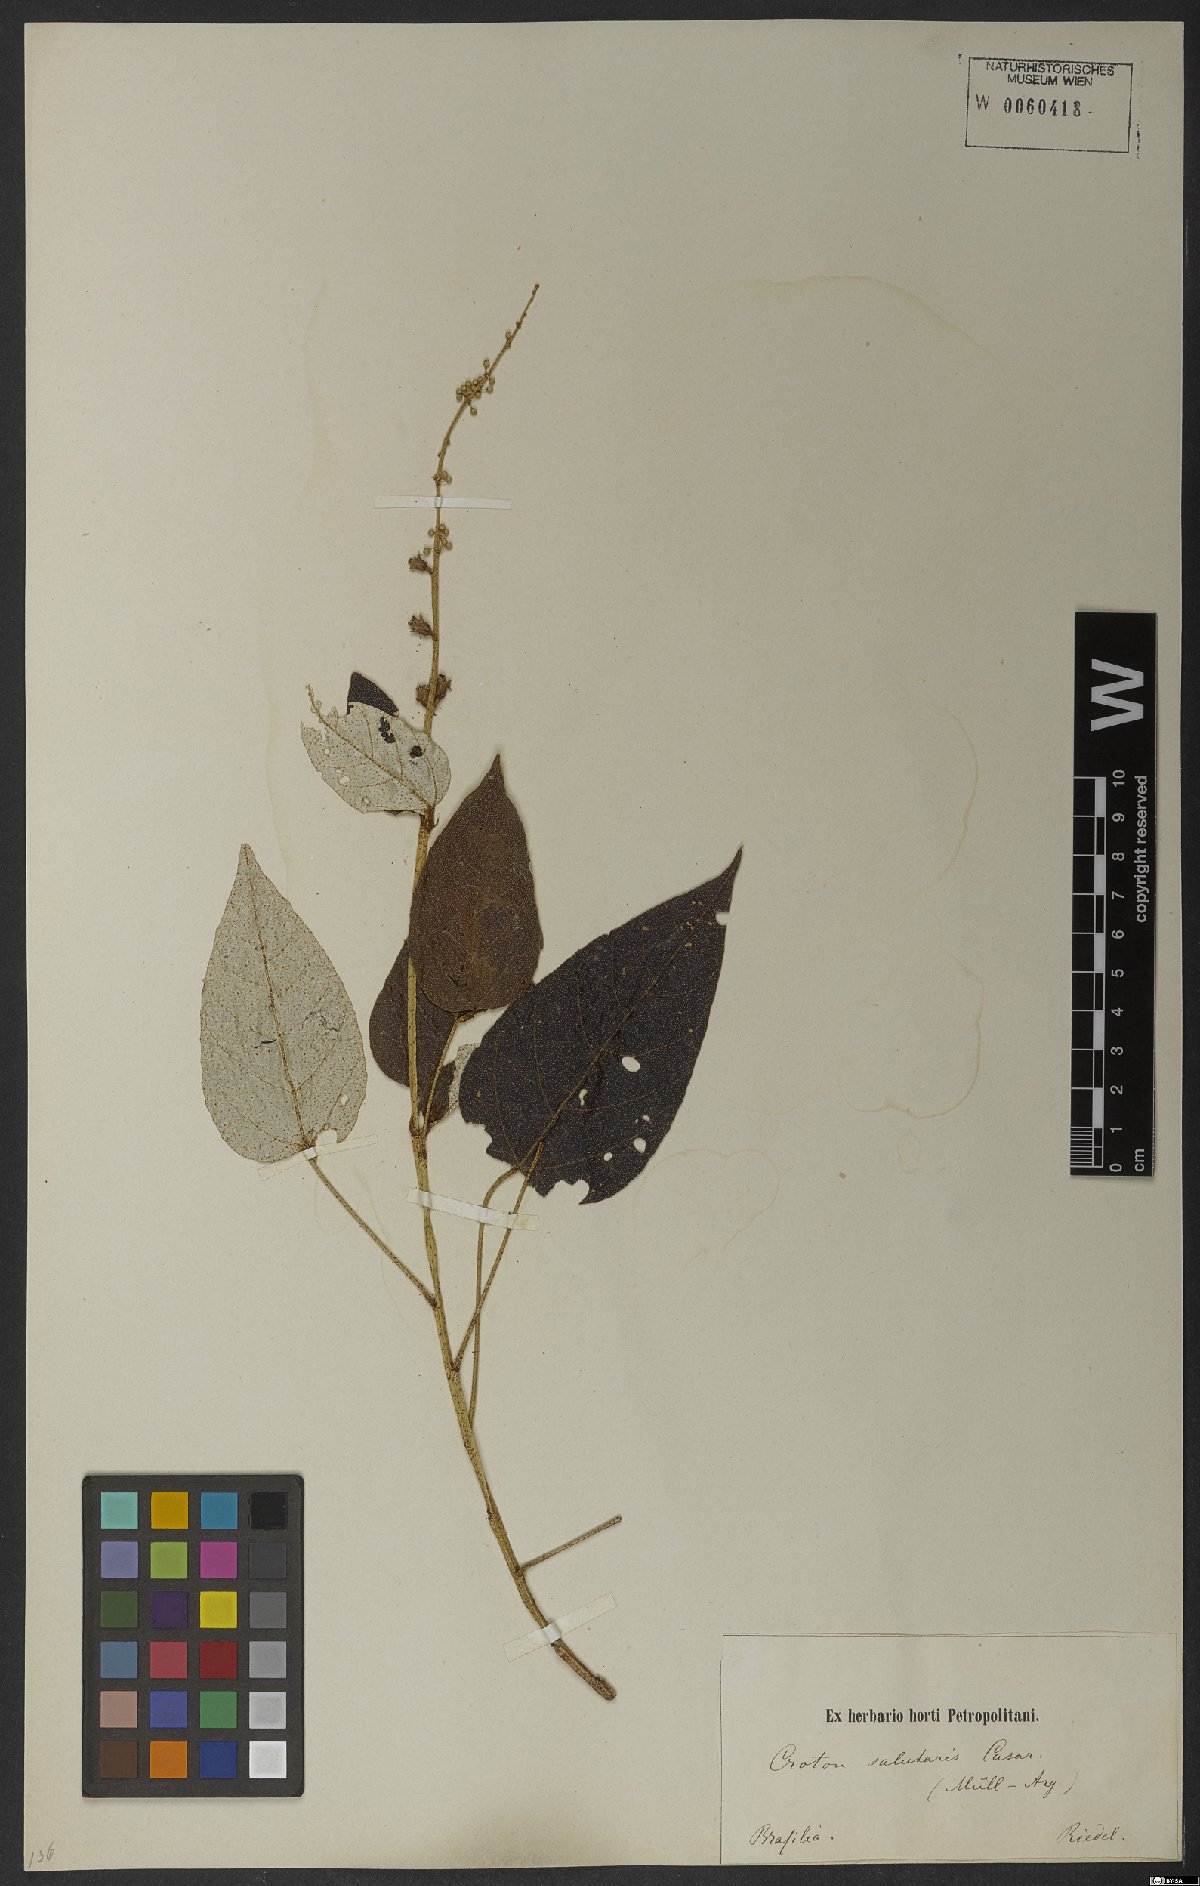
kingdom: Plantae
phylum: Tracheophyta
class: Magnoliopsida
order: Malpighiales
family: Euphorbiaceae
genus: Croton
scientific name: Croton salutaris
